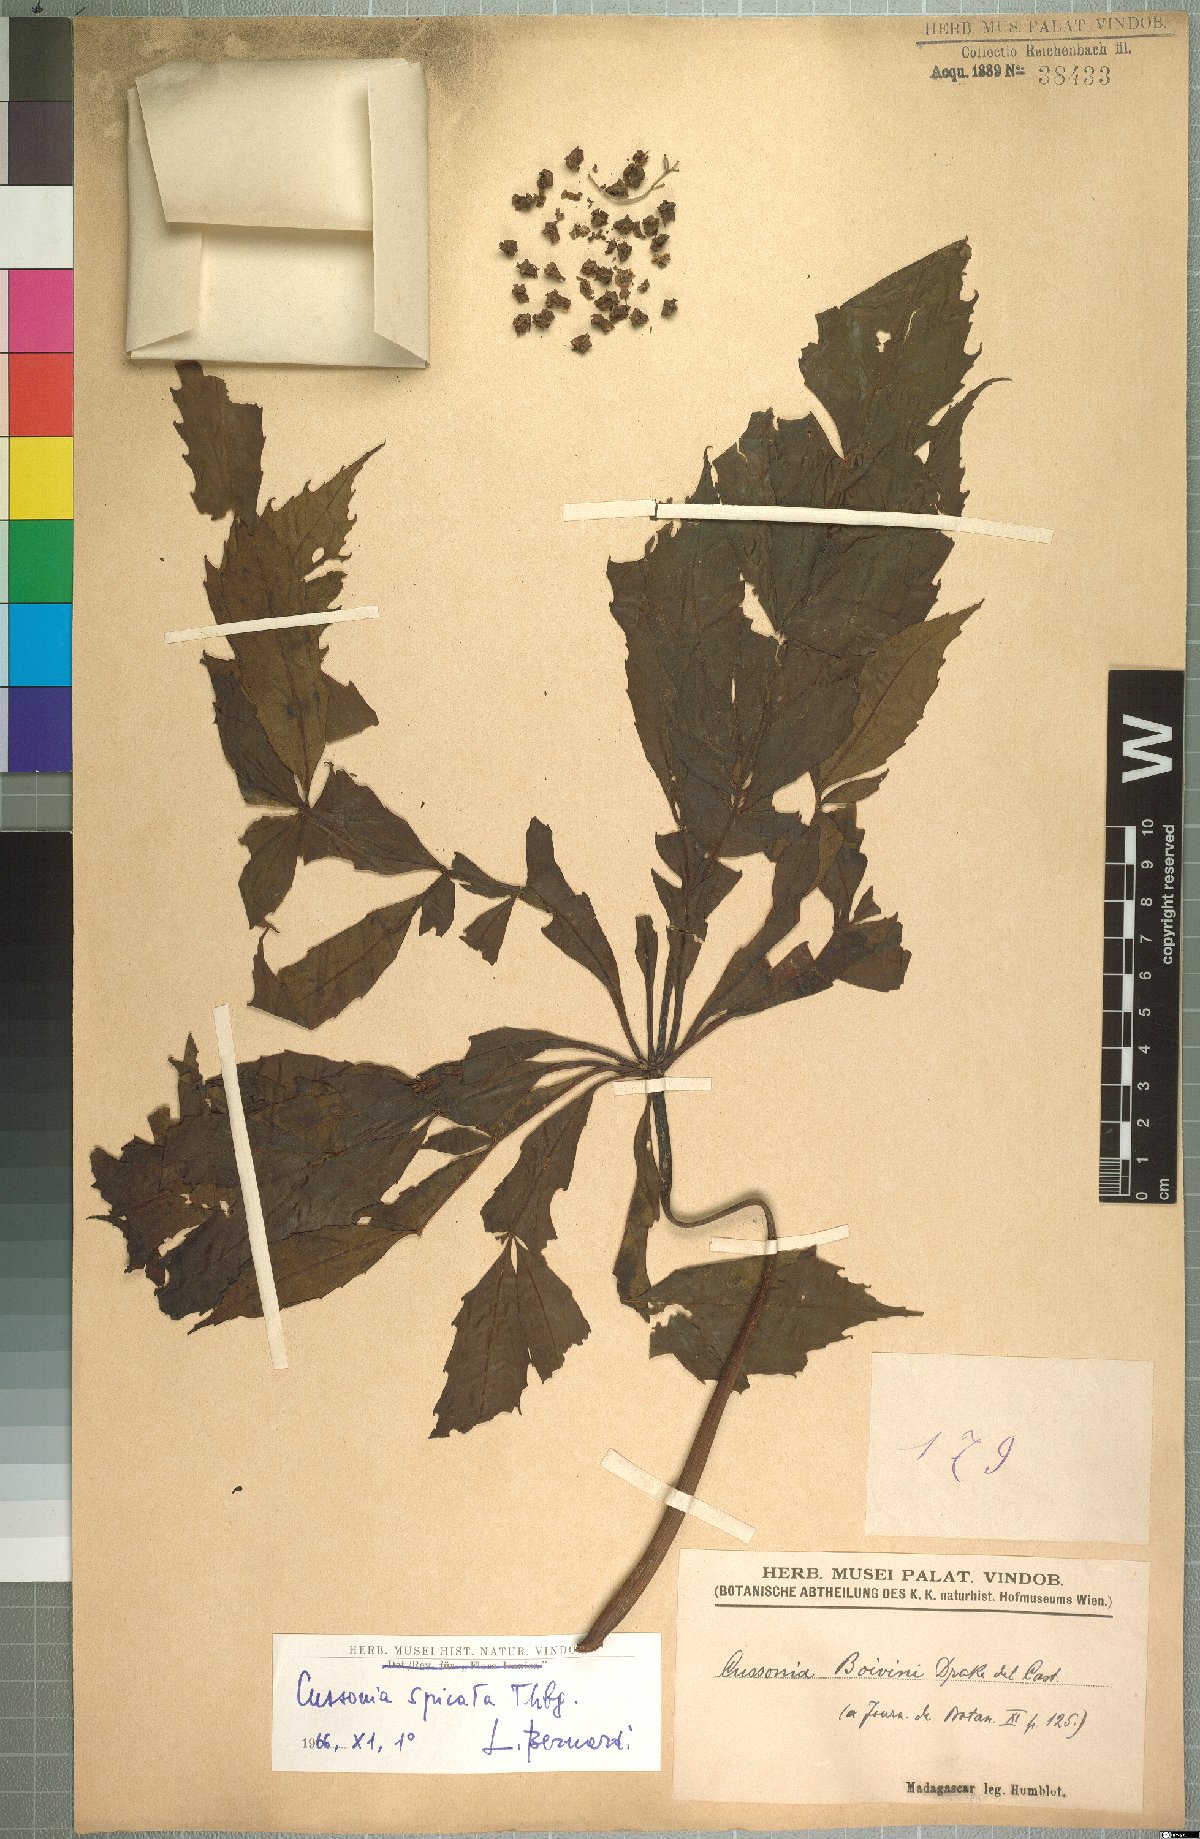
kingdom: Plantae
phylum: Tracheophyta
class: Magnoliopsida
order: Apiales
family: Araliaceae
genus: Cussonia
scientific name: Cussonia spicata
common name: Common cabbagetree
